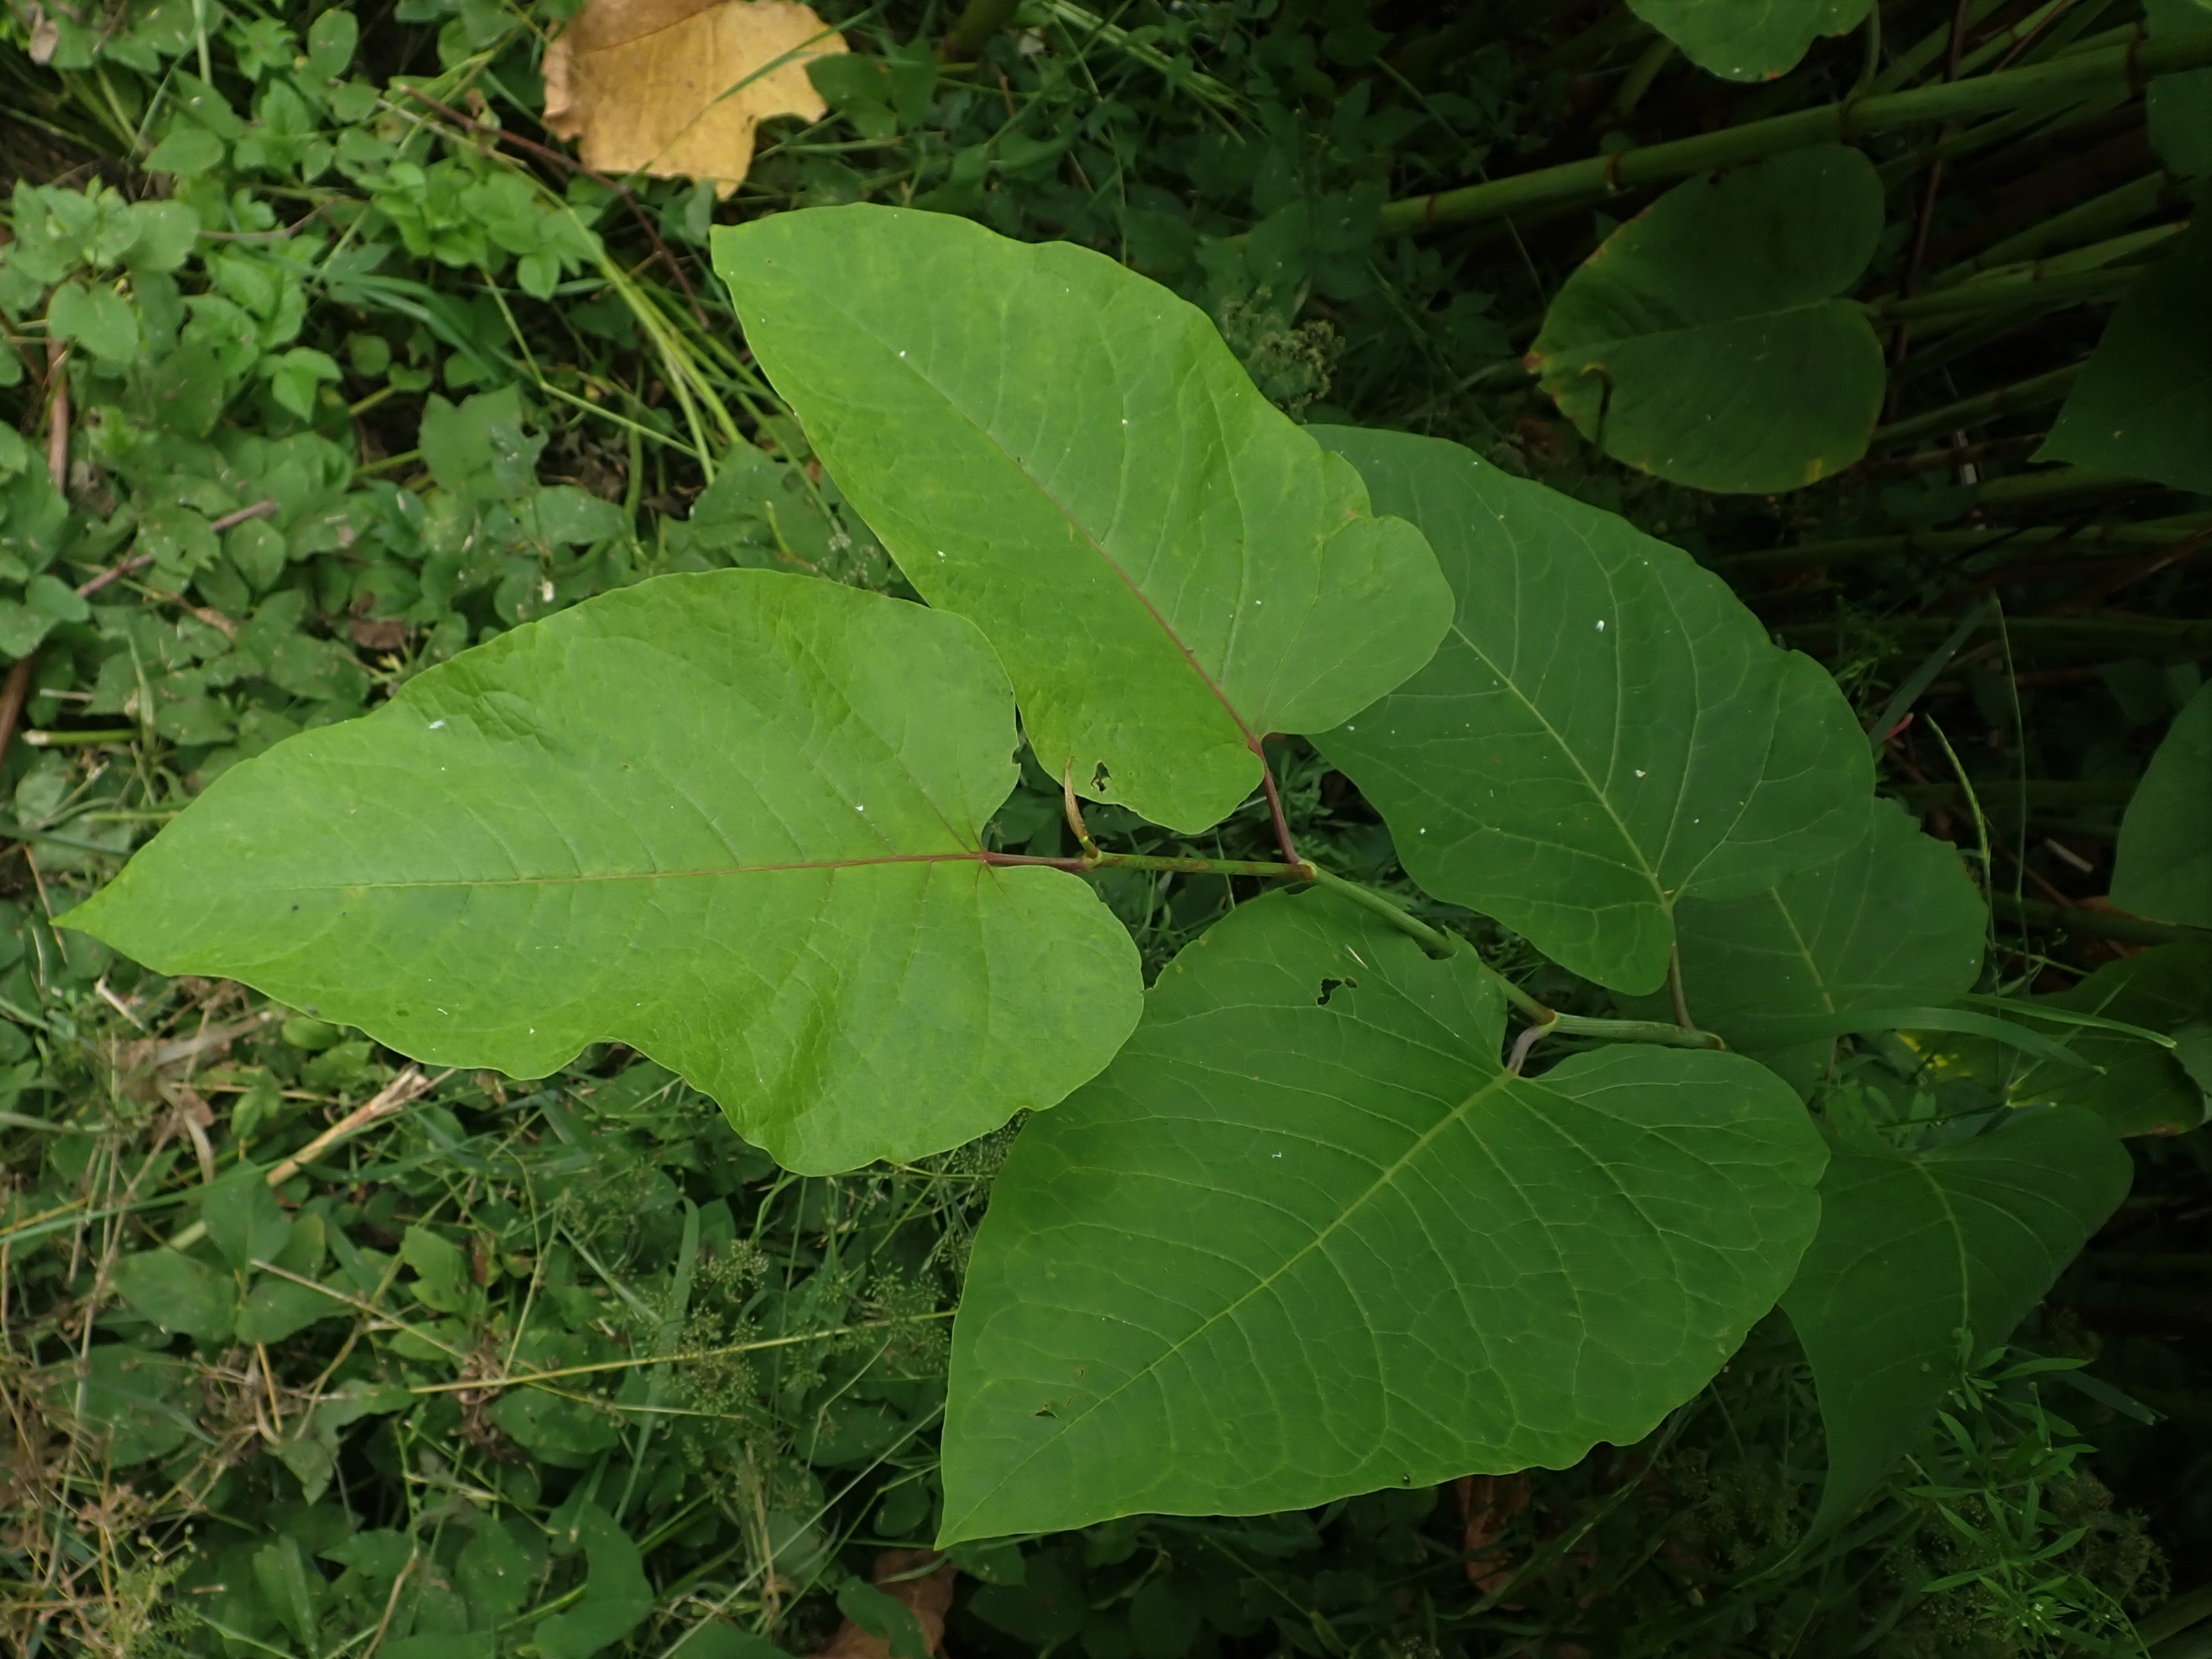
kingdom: Plantae
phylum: Tracheophyta
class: Magnoliopsida
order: Caryophyllales
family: Polygonaceae
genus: Reynoutria
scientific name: Reynoutria sachalinensis
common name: Kæmpe-pileurt
